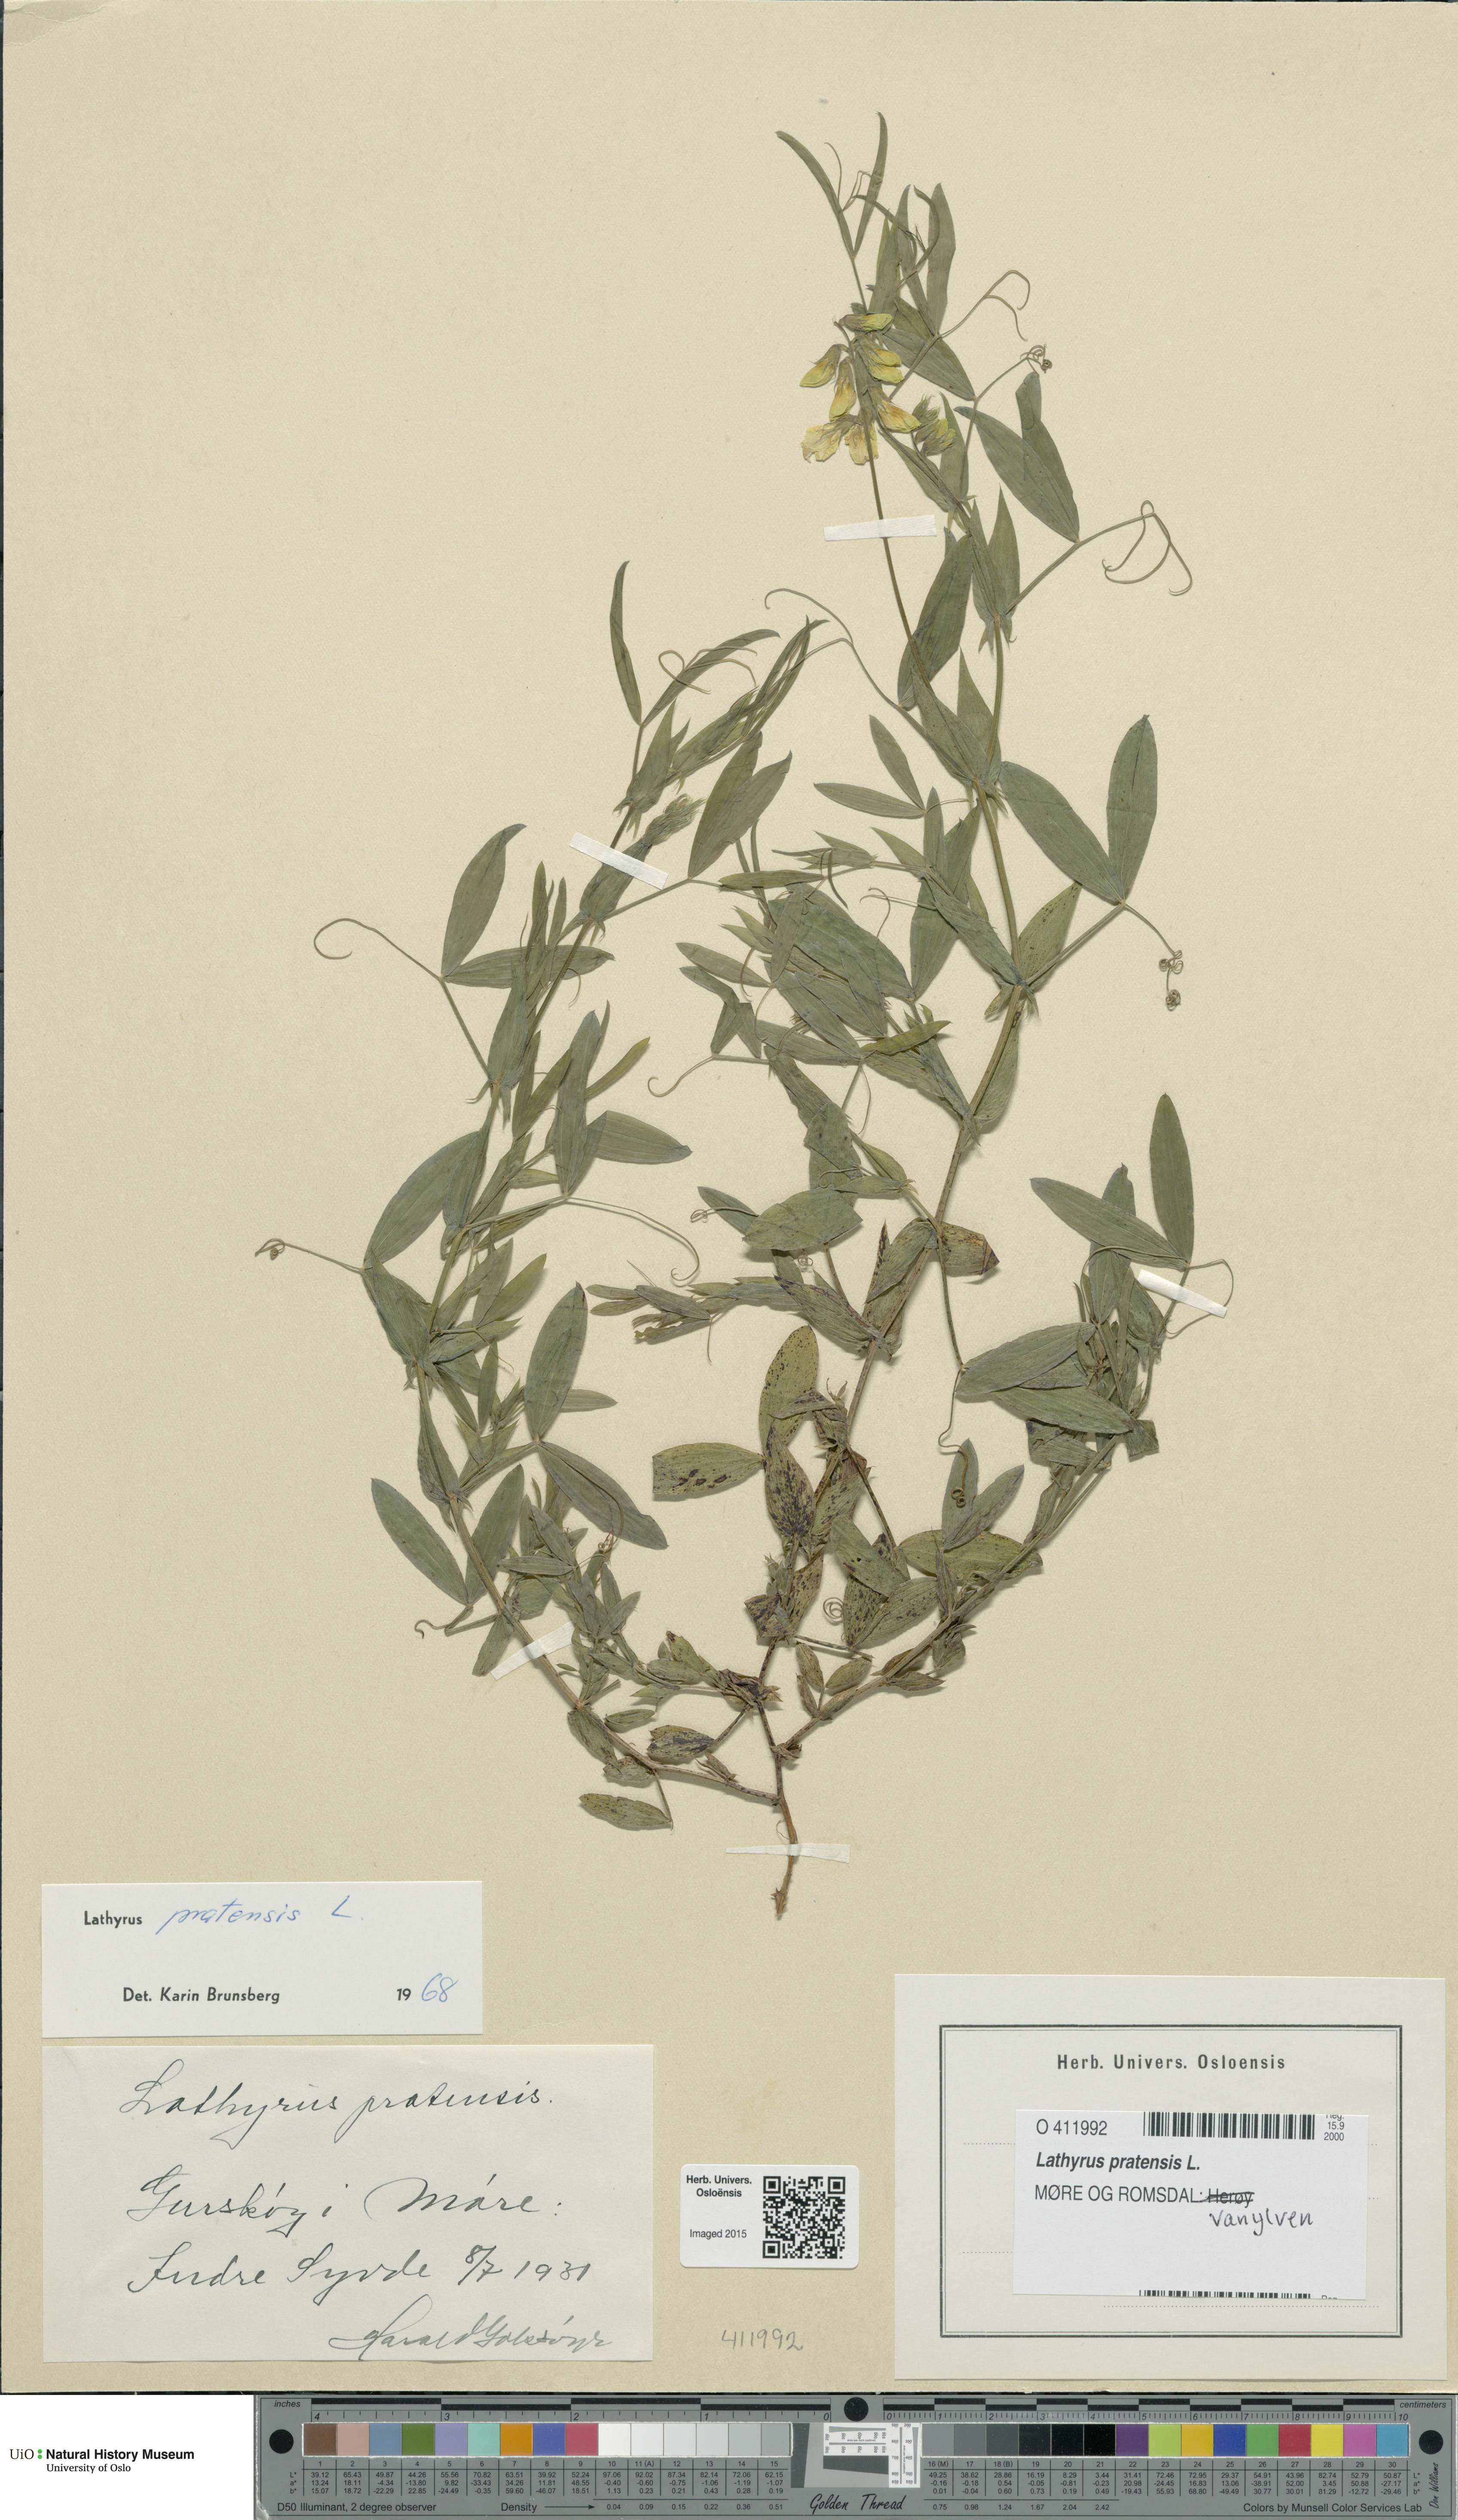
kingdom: Plantae
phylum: Tracheophyta
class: Magnoliopsida
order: Fabales
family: Fabaceae
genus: Lathyrus
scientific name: Lathyrus pratensis
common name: Meadow vetchling
